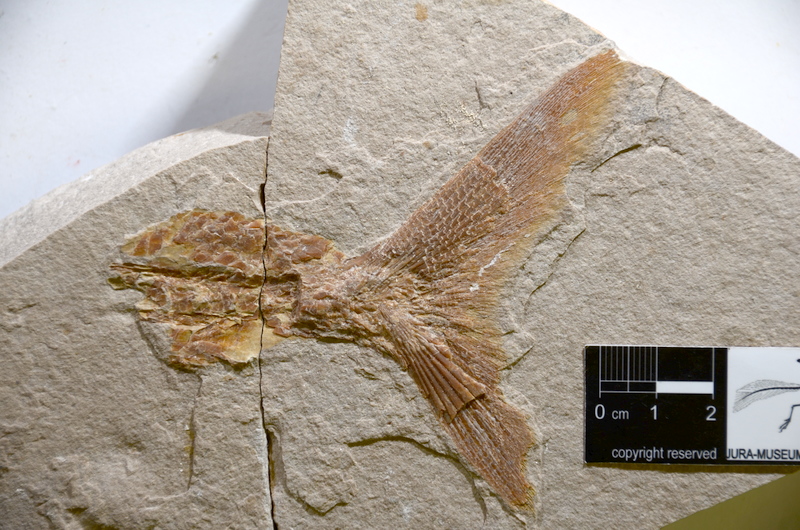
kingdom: Animalia
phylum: Chordata
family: Ankylophoridae
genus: Siemensichthys
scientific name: Siemensichthys
